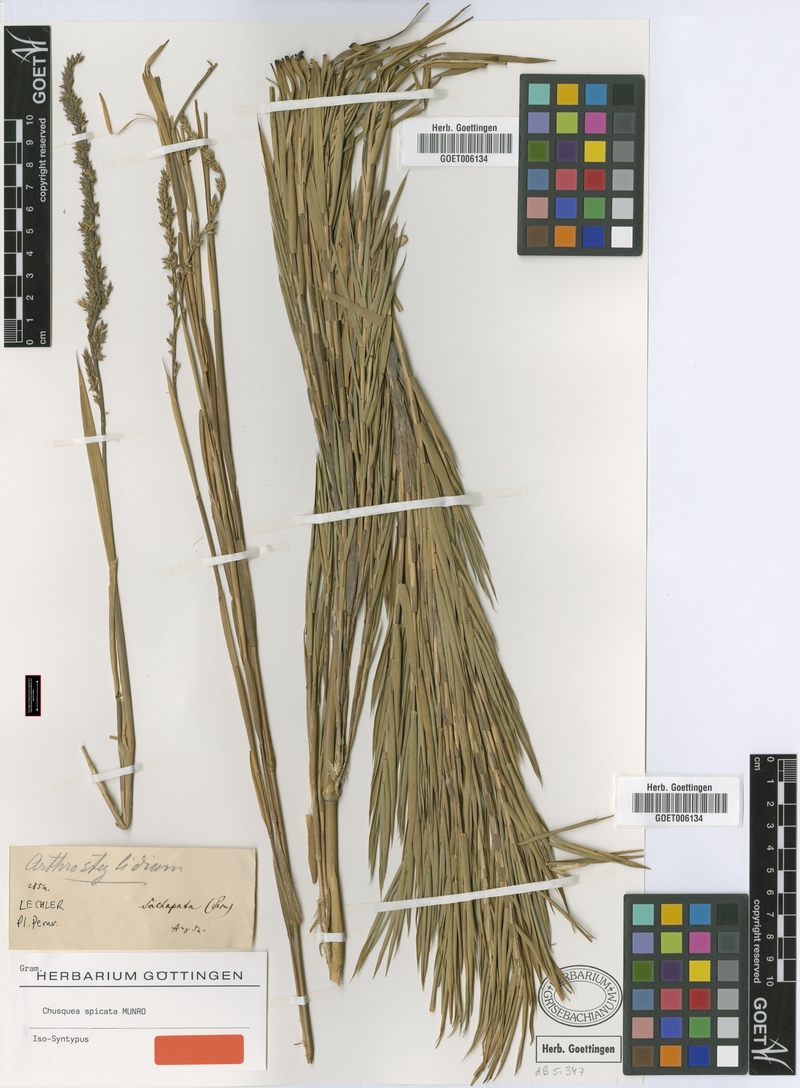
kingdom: Plantae
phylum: Tracheophyta
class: Liliopsida
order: Poales
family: Poaceae
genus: Chusquea
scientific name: Chusquea spicata
